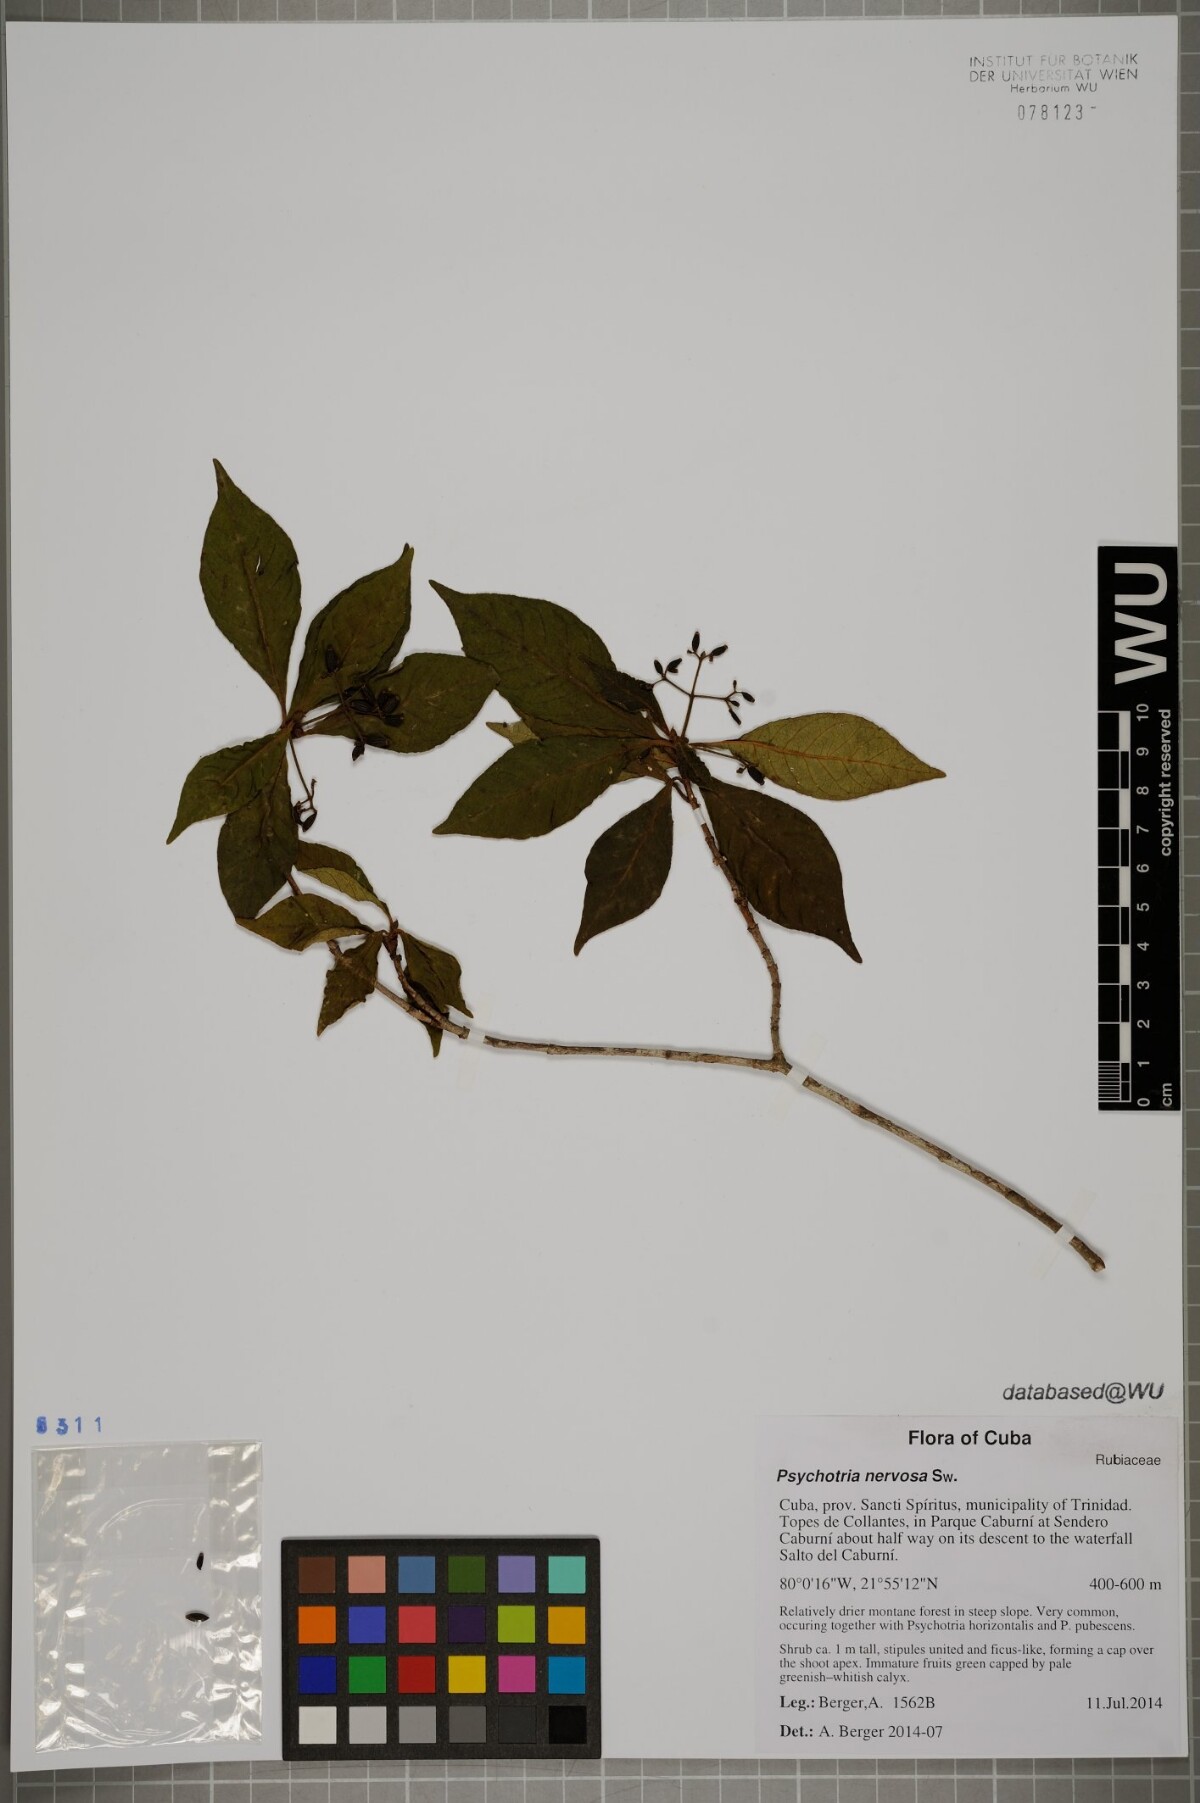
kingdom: Plantae
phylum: Tracheophyta
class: Magnoliopsida
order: Gentianales
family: Rubiaceae
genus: Psychotria
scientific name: Psychotria nervosa
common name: Bastard cankerberry
